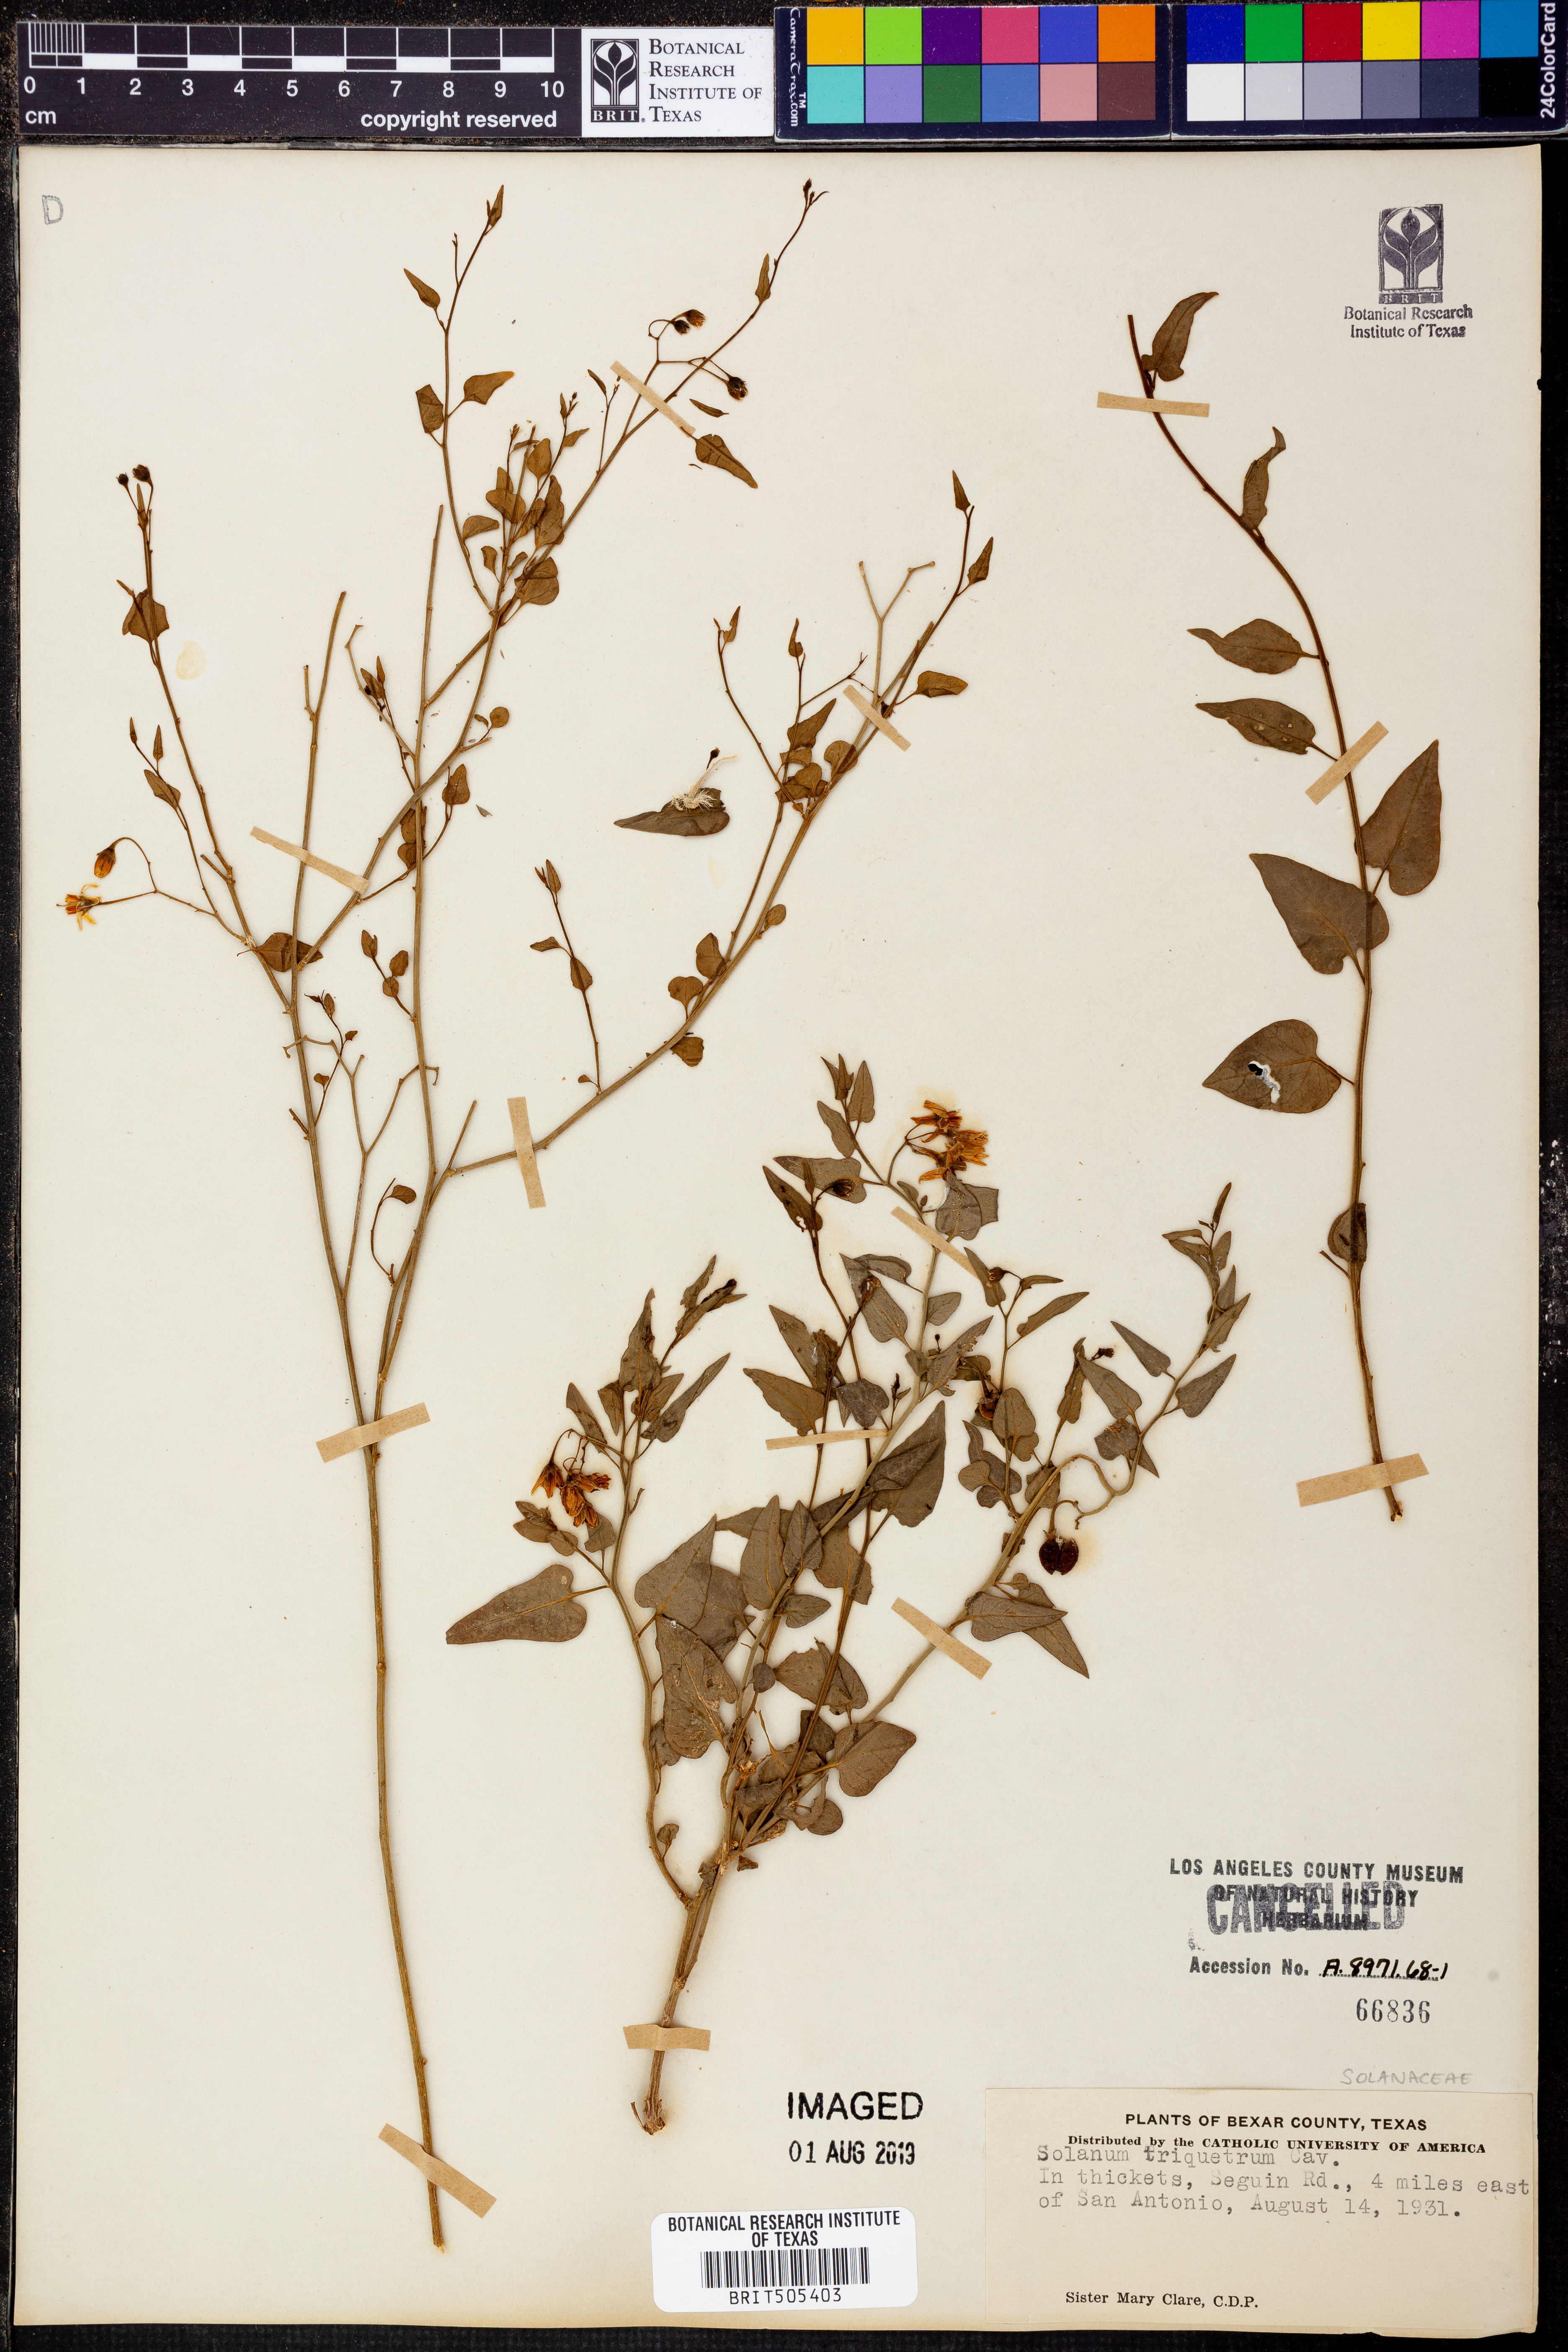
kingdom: Plantae
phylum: Tracheophyta
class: Magnoliopsida
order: Solanales
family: Solanaceae
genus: Solanum
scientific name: Solanum triquetrum
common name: Texas nightshade
